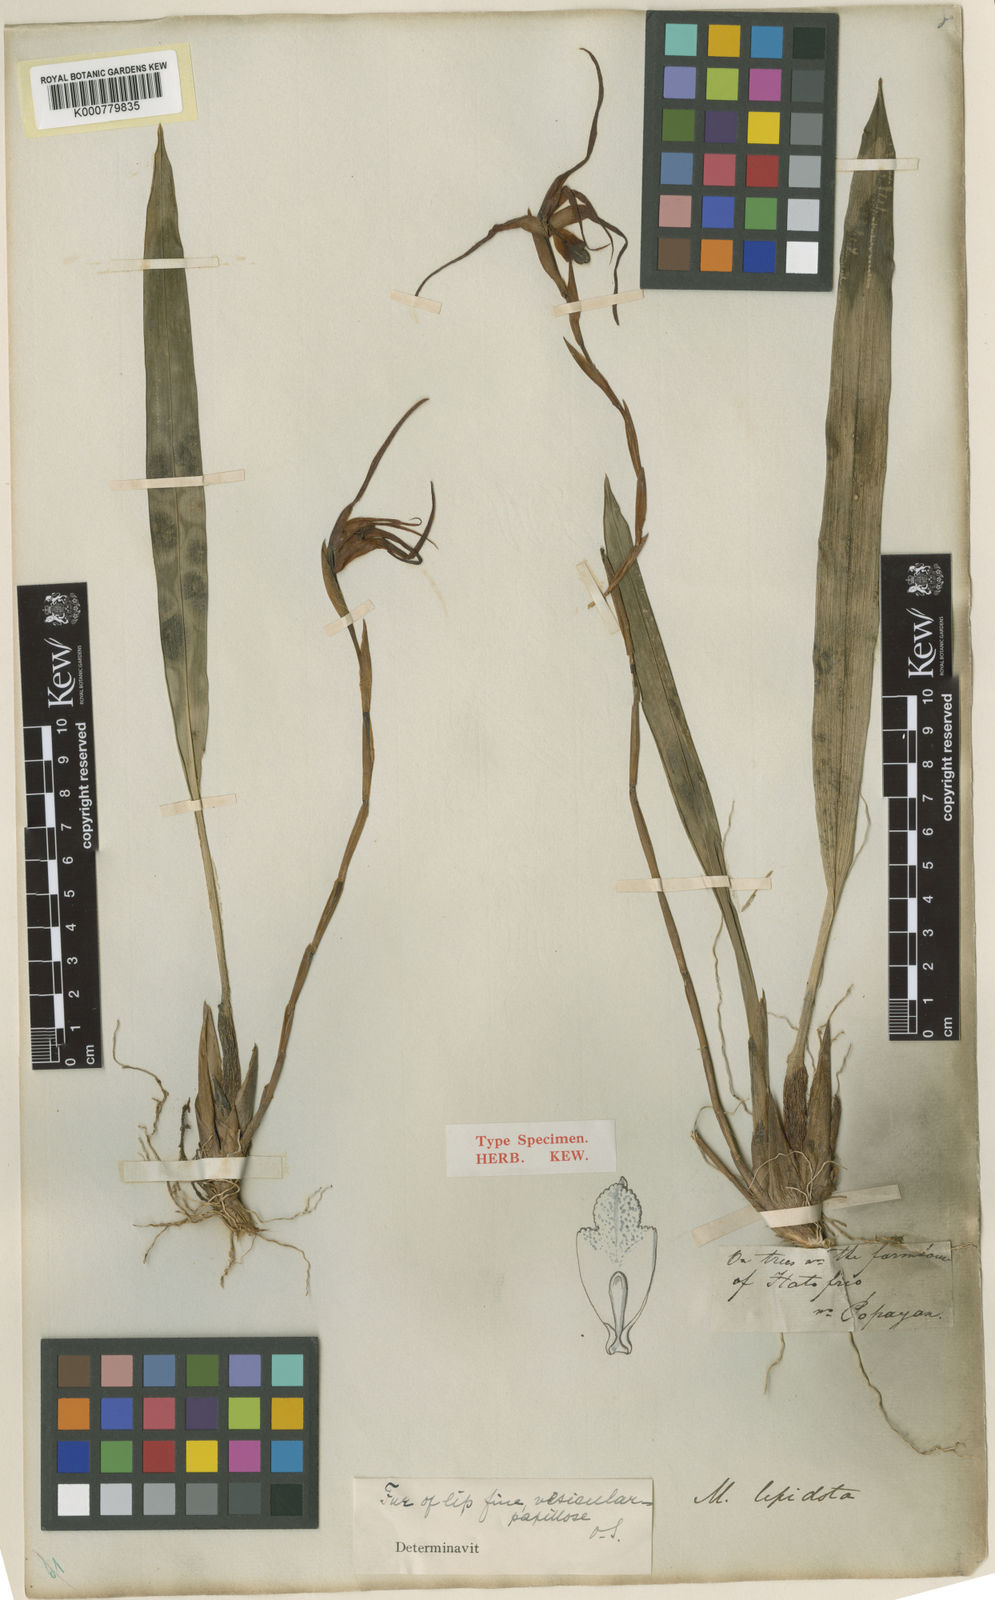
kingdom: Plantae
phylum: Tracheophyta
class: Liliopsida
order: Asparagales
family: Orchidaceae
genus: Maxillaria
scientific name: Maxillaria lepidota
